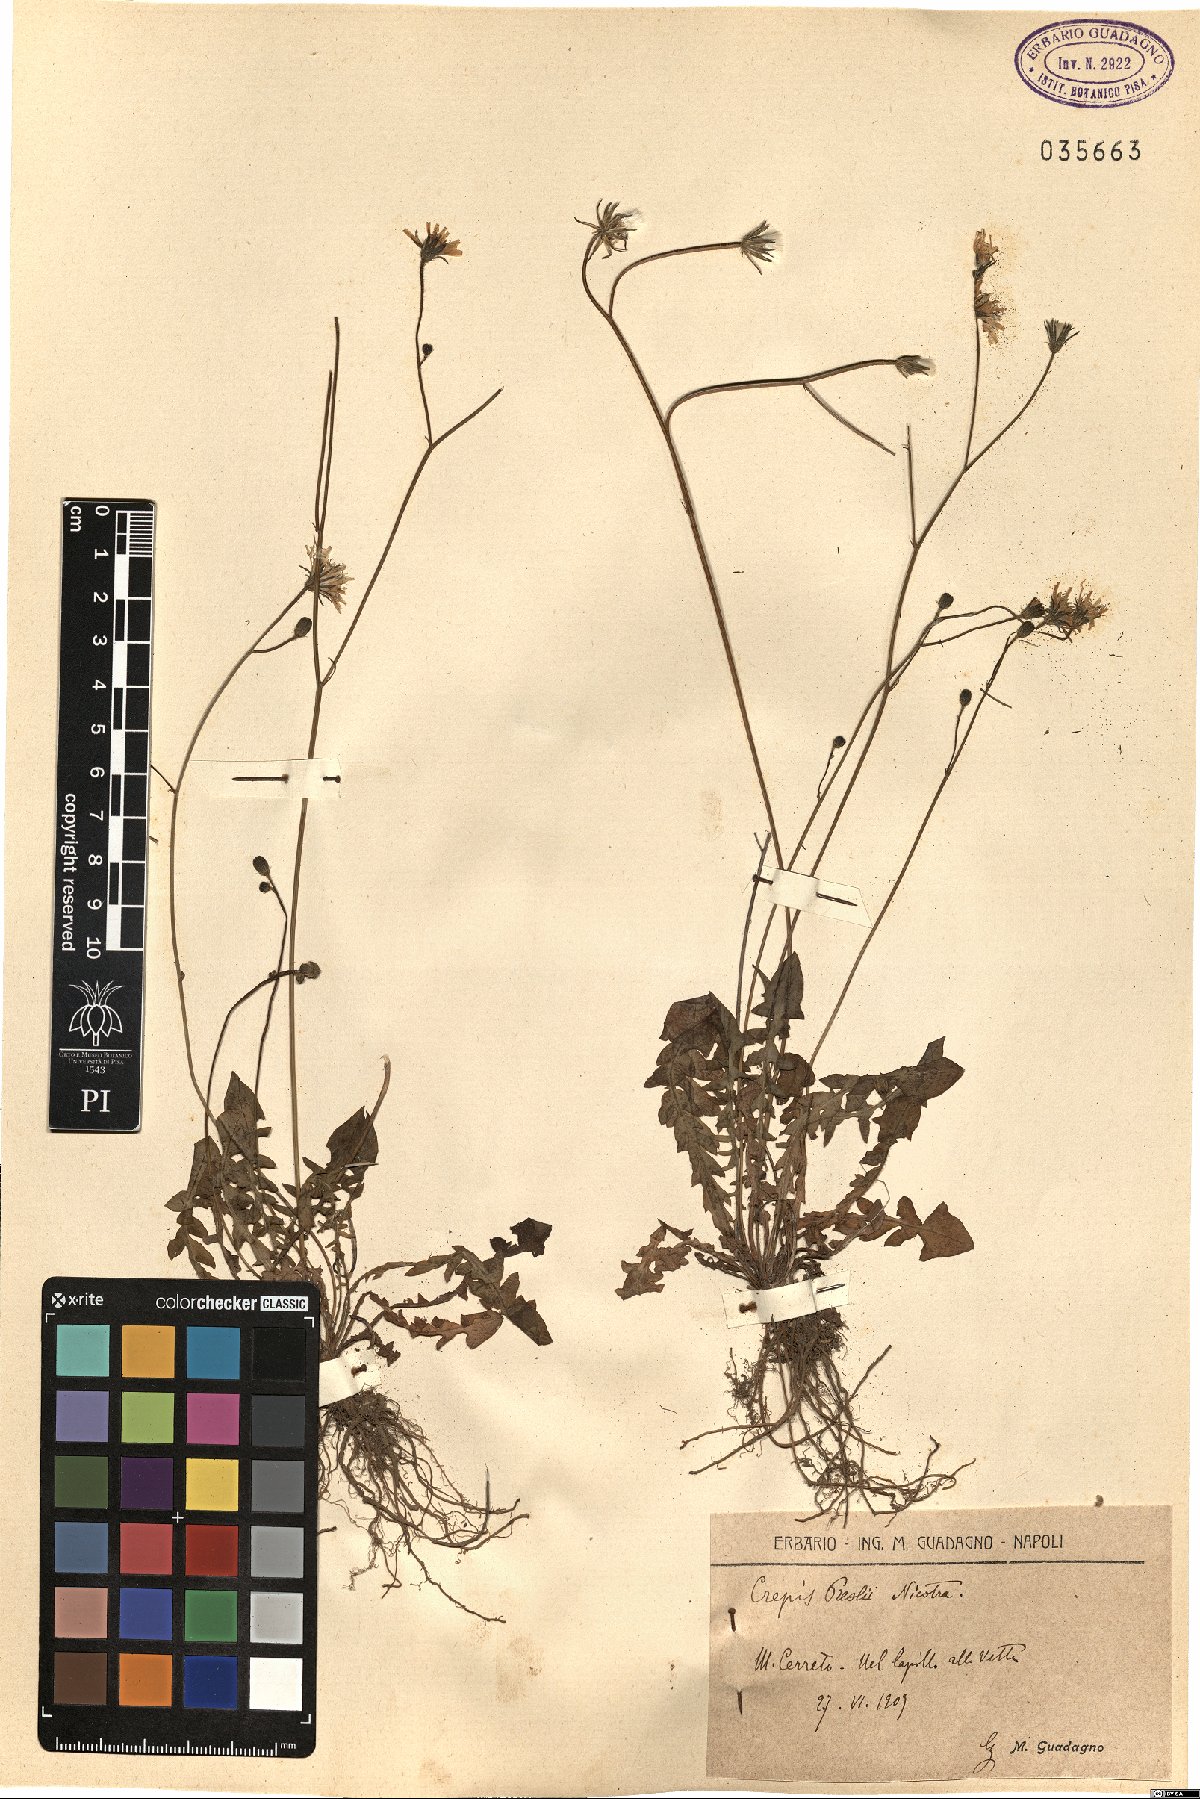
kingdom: Plantae
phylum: Tracheophyta
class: Magnoliopsida
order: Asterales
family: Asteraceae
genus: Crepis
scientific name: Crepis
